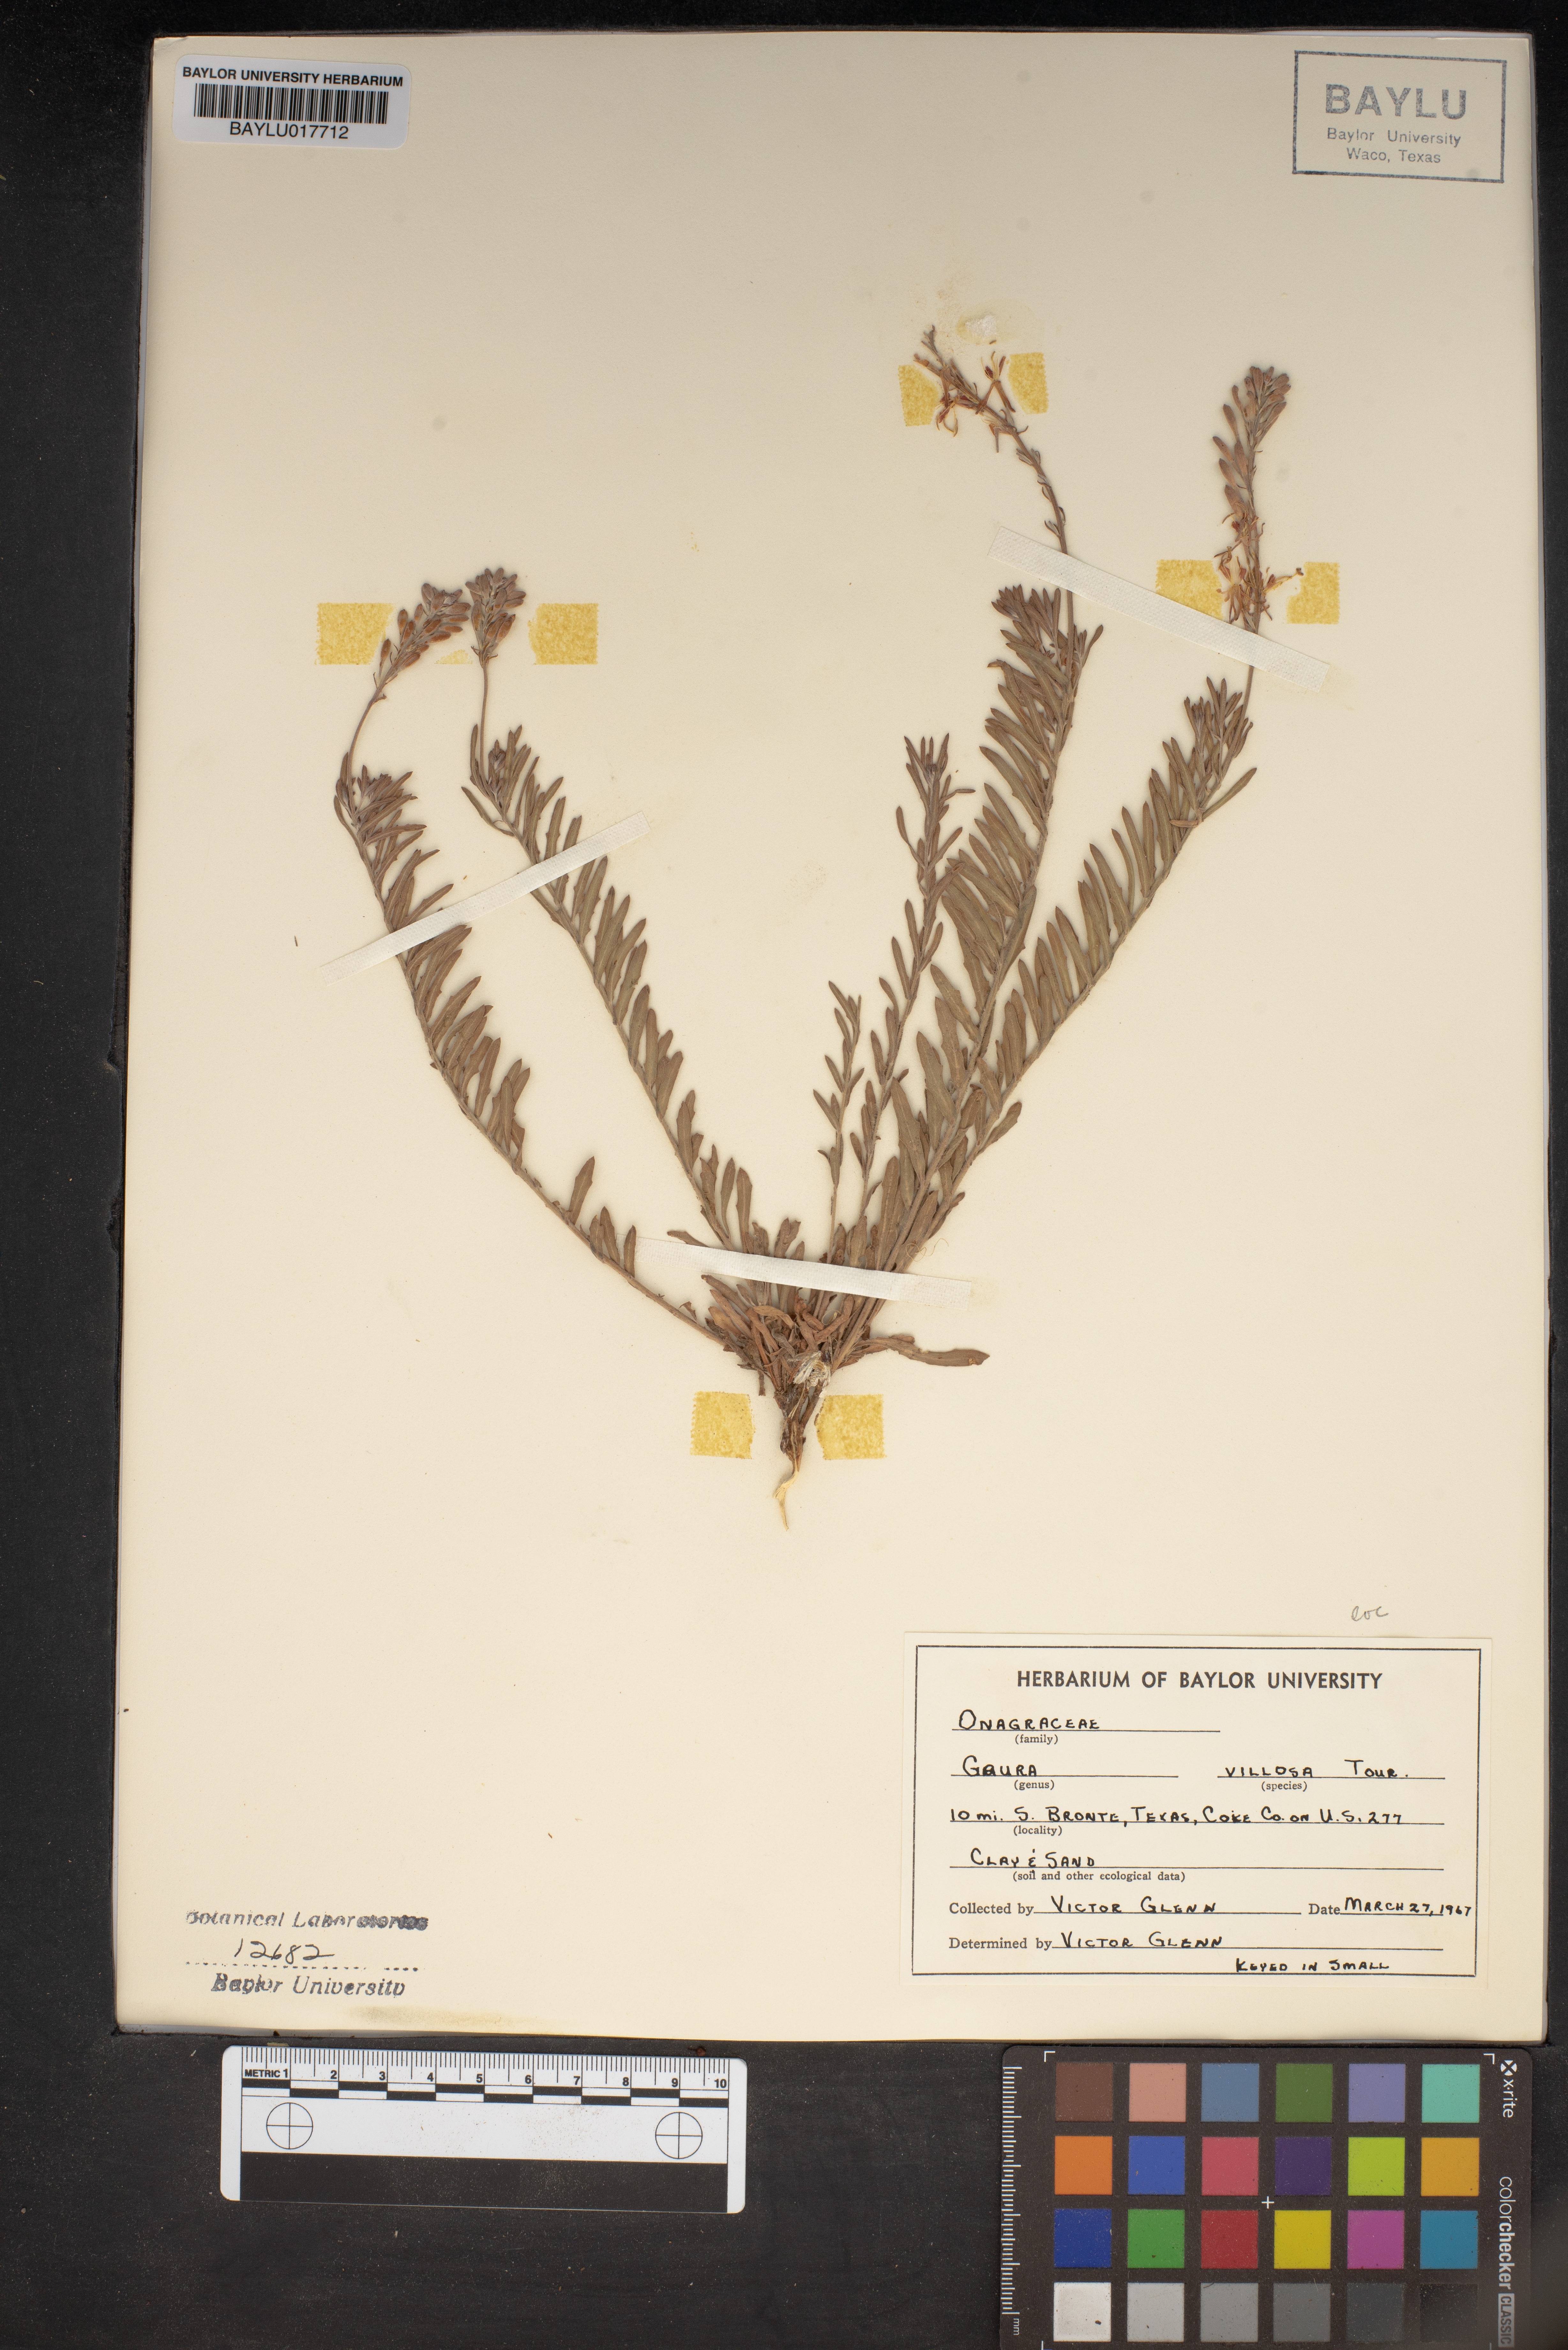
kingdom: Plantae
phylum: Tracheophyta
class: Magnoliopsida
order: Myrtales
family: Onagraceae
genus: Oenothera
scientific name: Oenothera cinerea
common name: Woolly beeblossom
